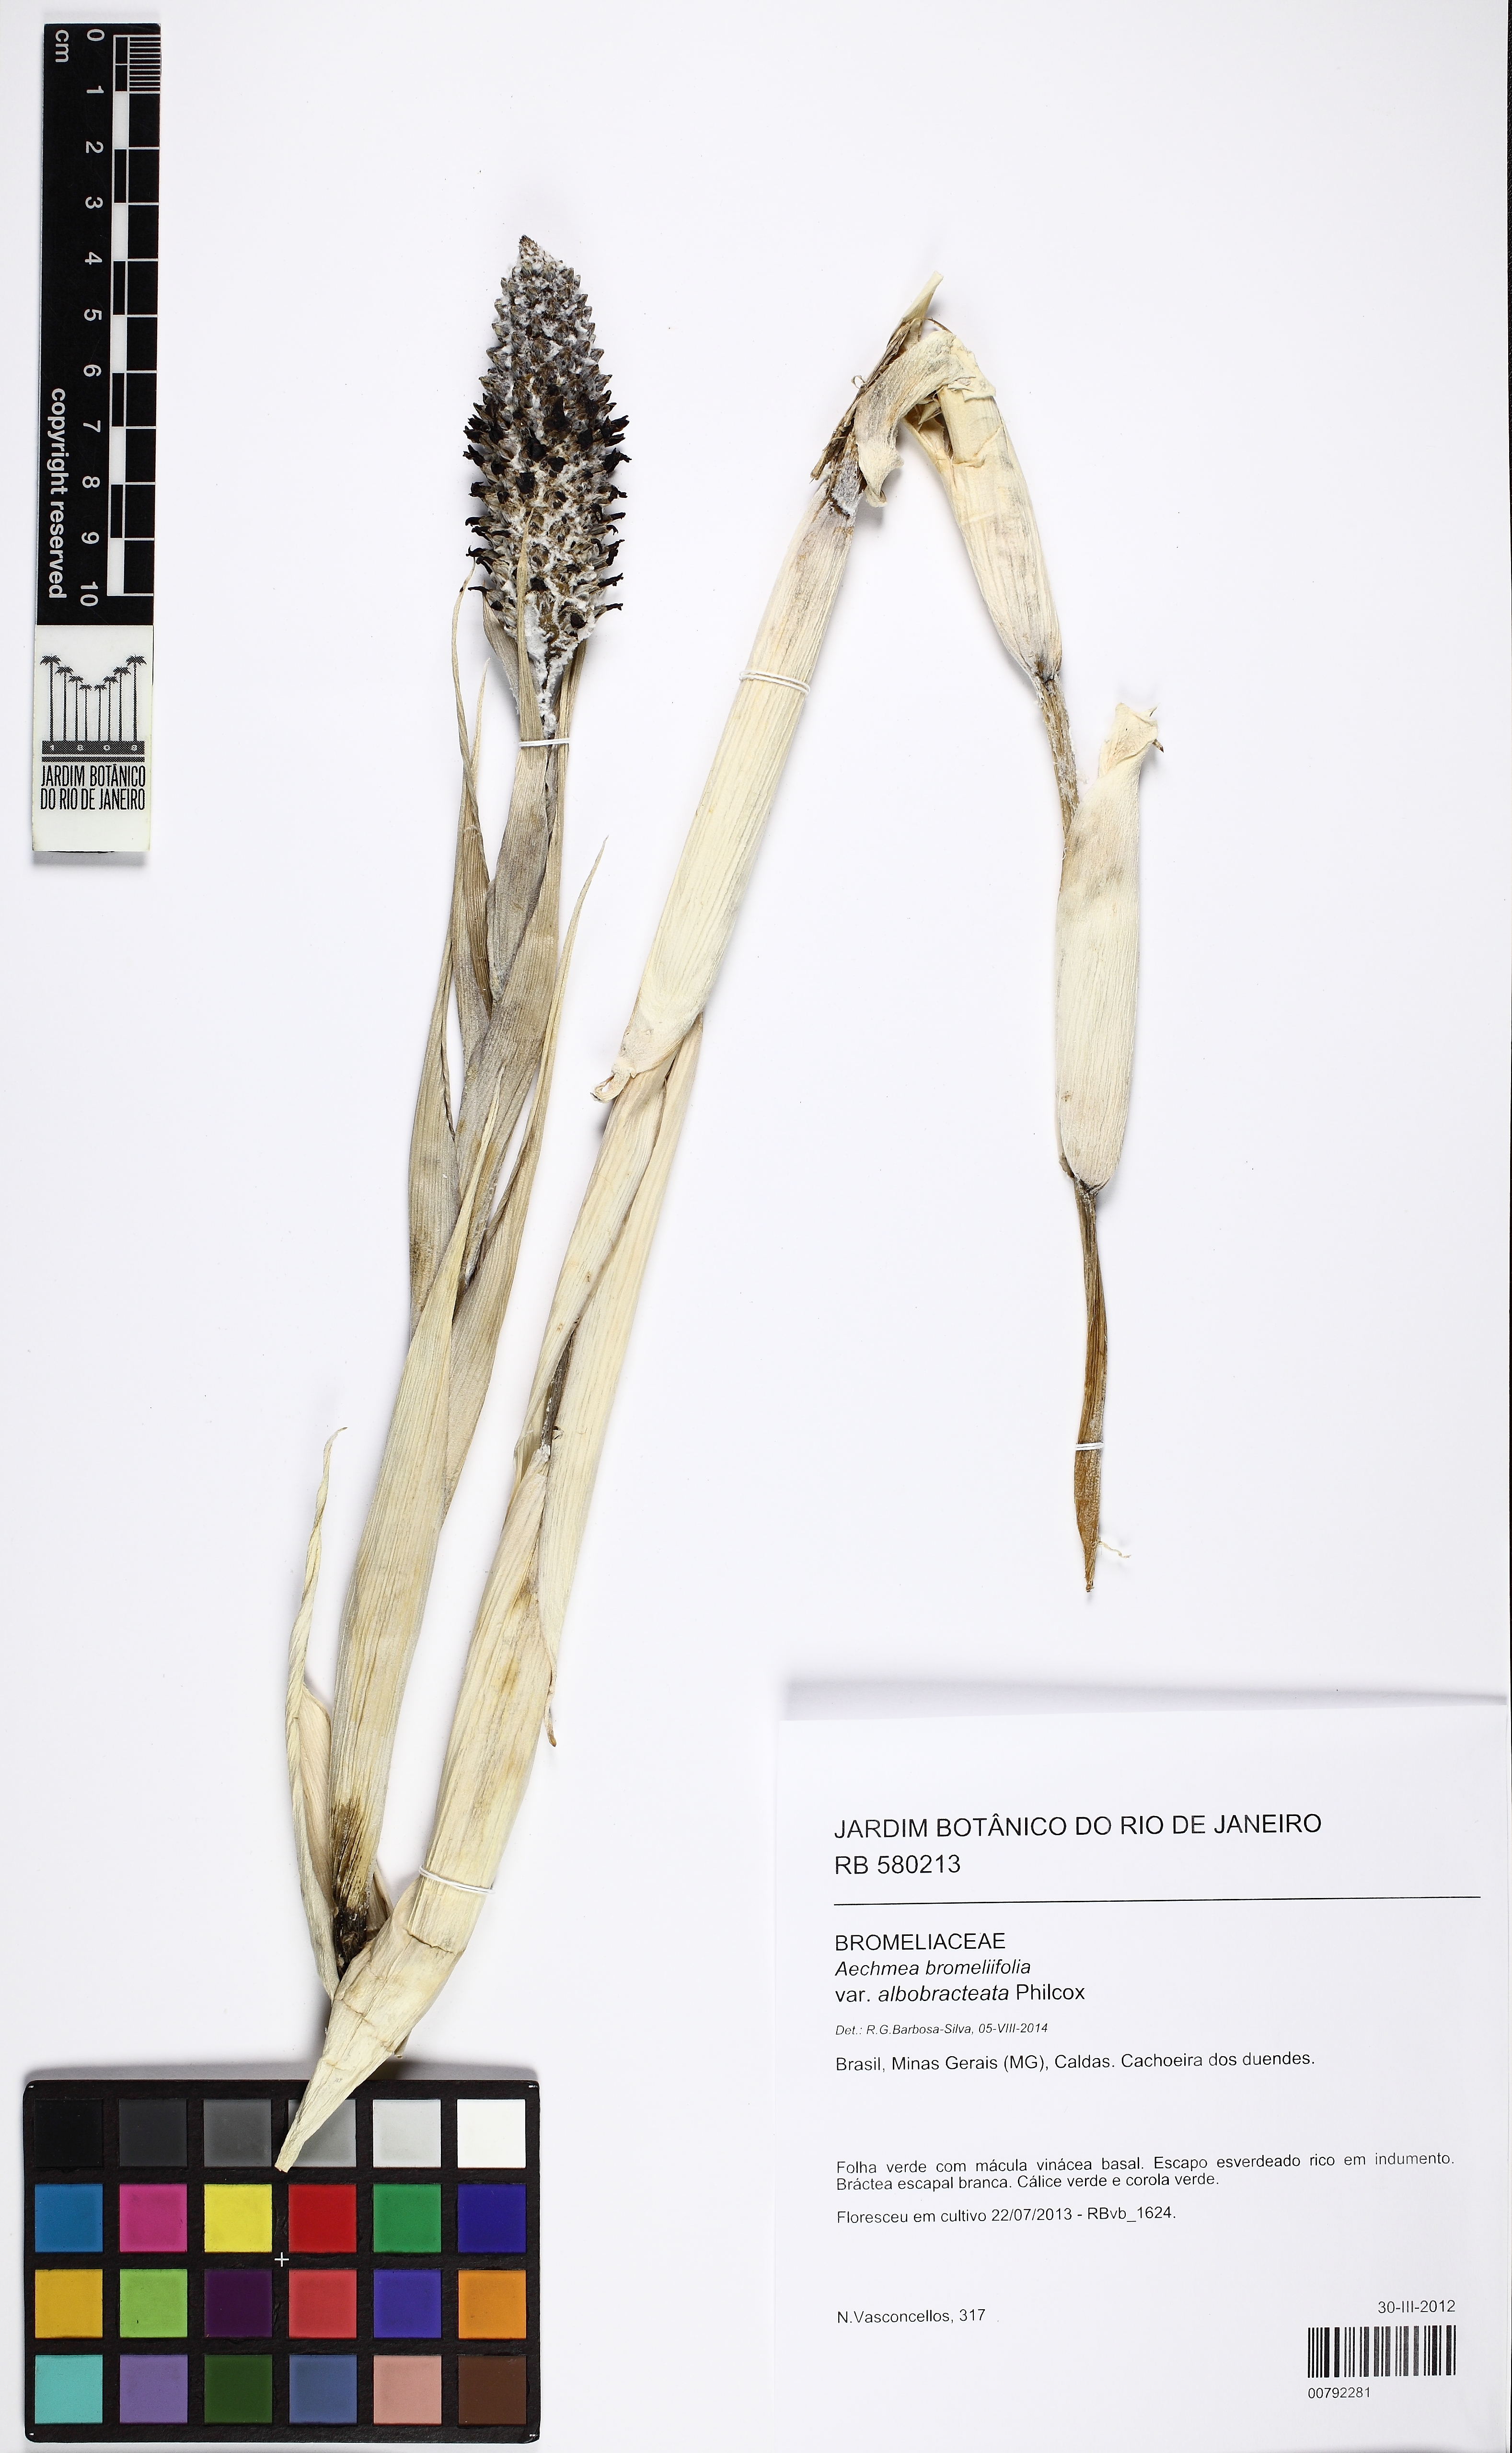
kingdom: Plantae
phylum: Tracheophyta
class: Liliopsida
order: Poales
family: Bromeliaceae
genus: Aechmea
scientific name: Aechmea bromeliifolia
